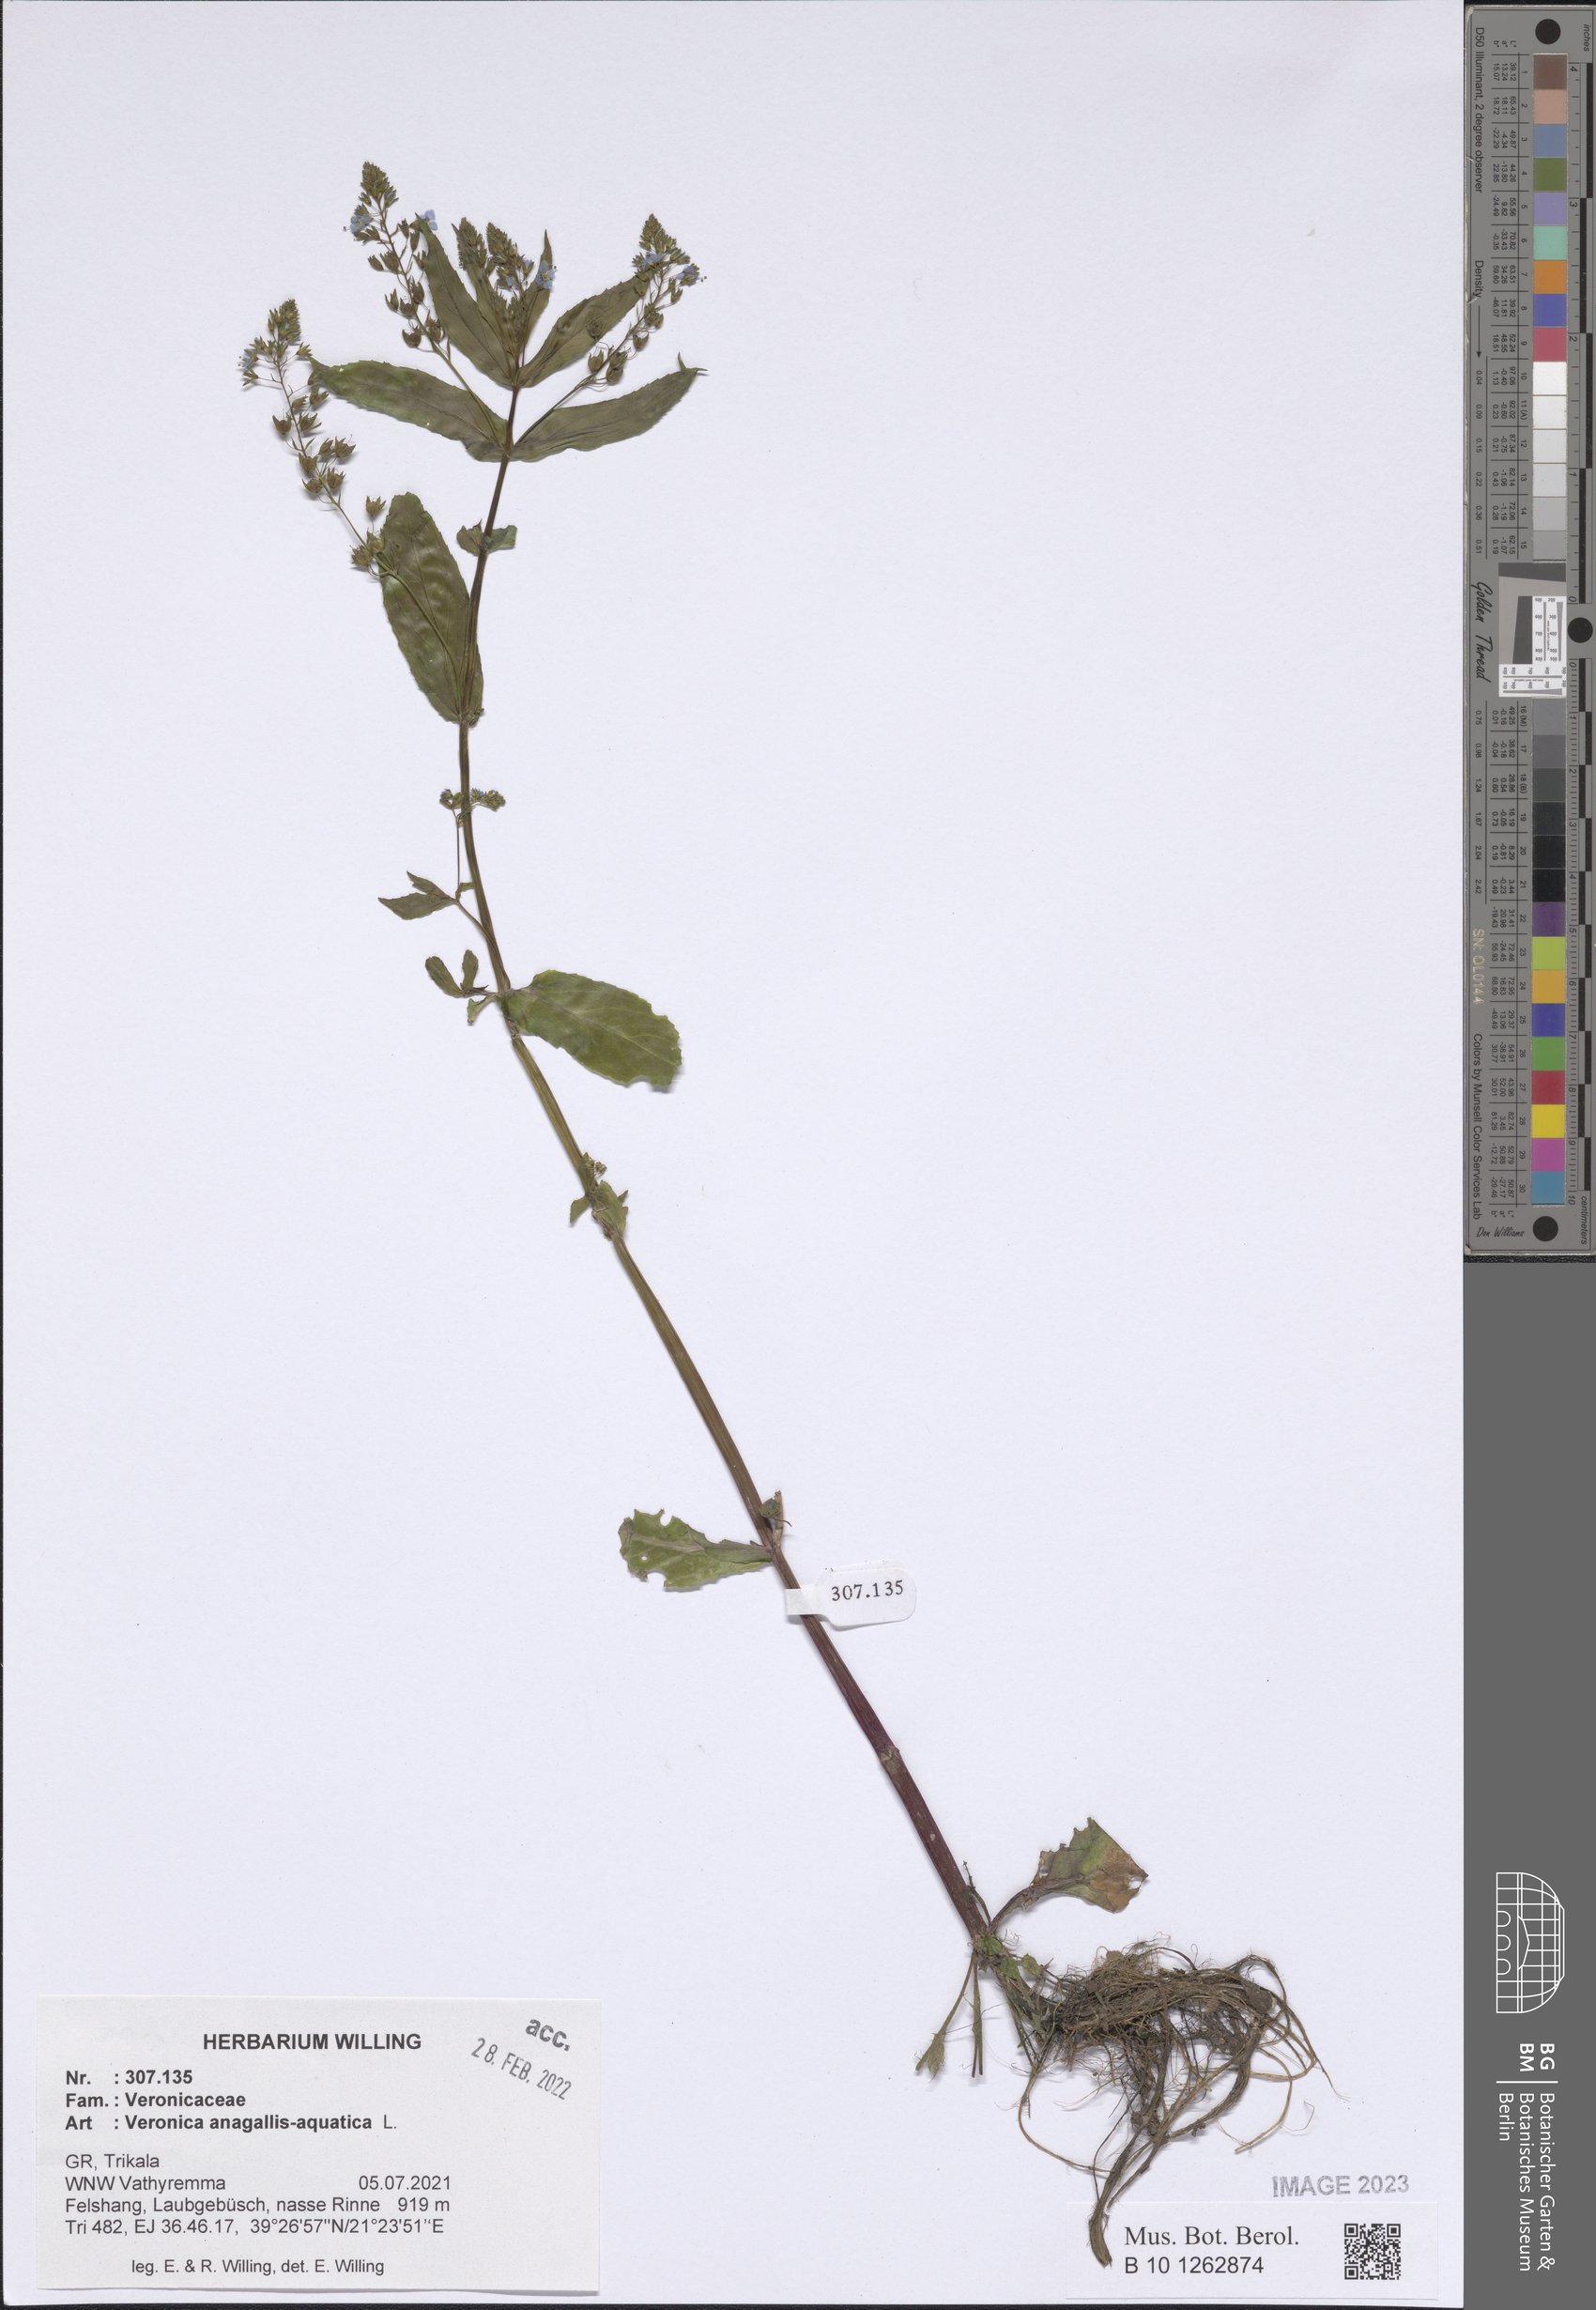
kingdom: Plantae
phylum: Tracheophyta
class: Magnoliopsida
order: Lamiales
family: Plantaginaceae
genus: Veronica
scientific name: Veronica anagallis-aquatica
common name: Water speedwell
